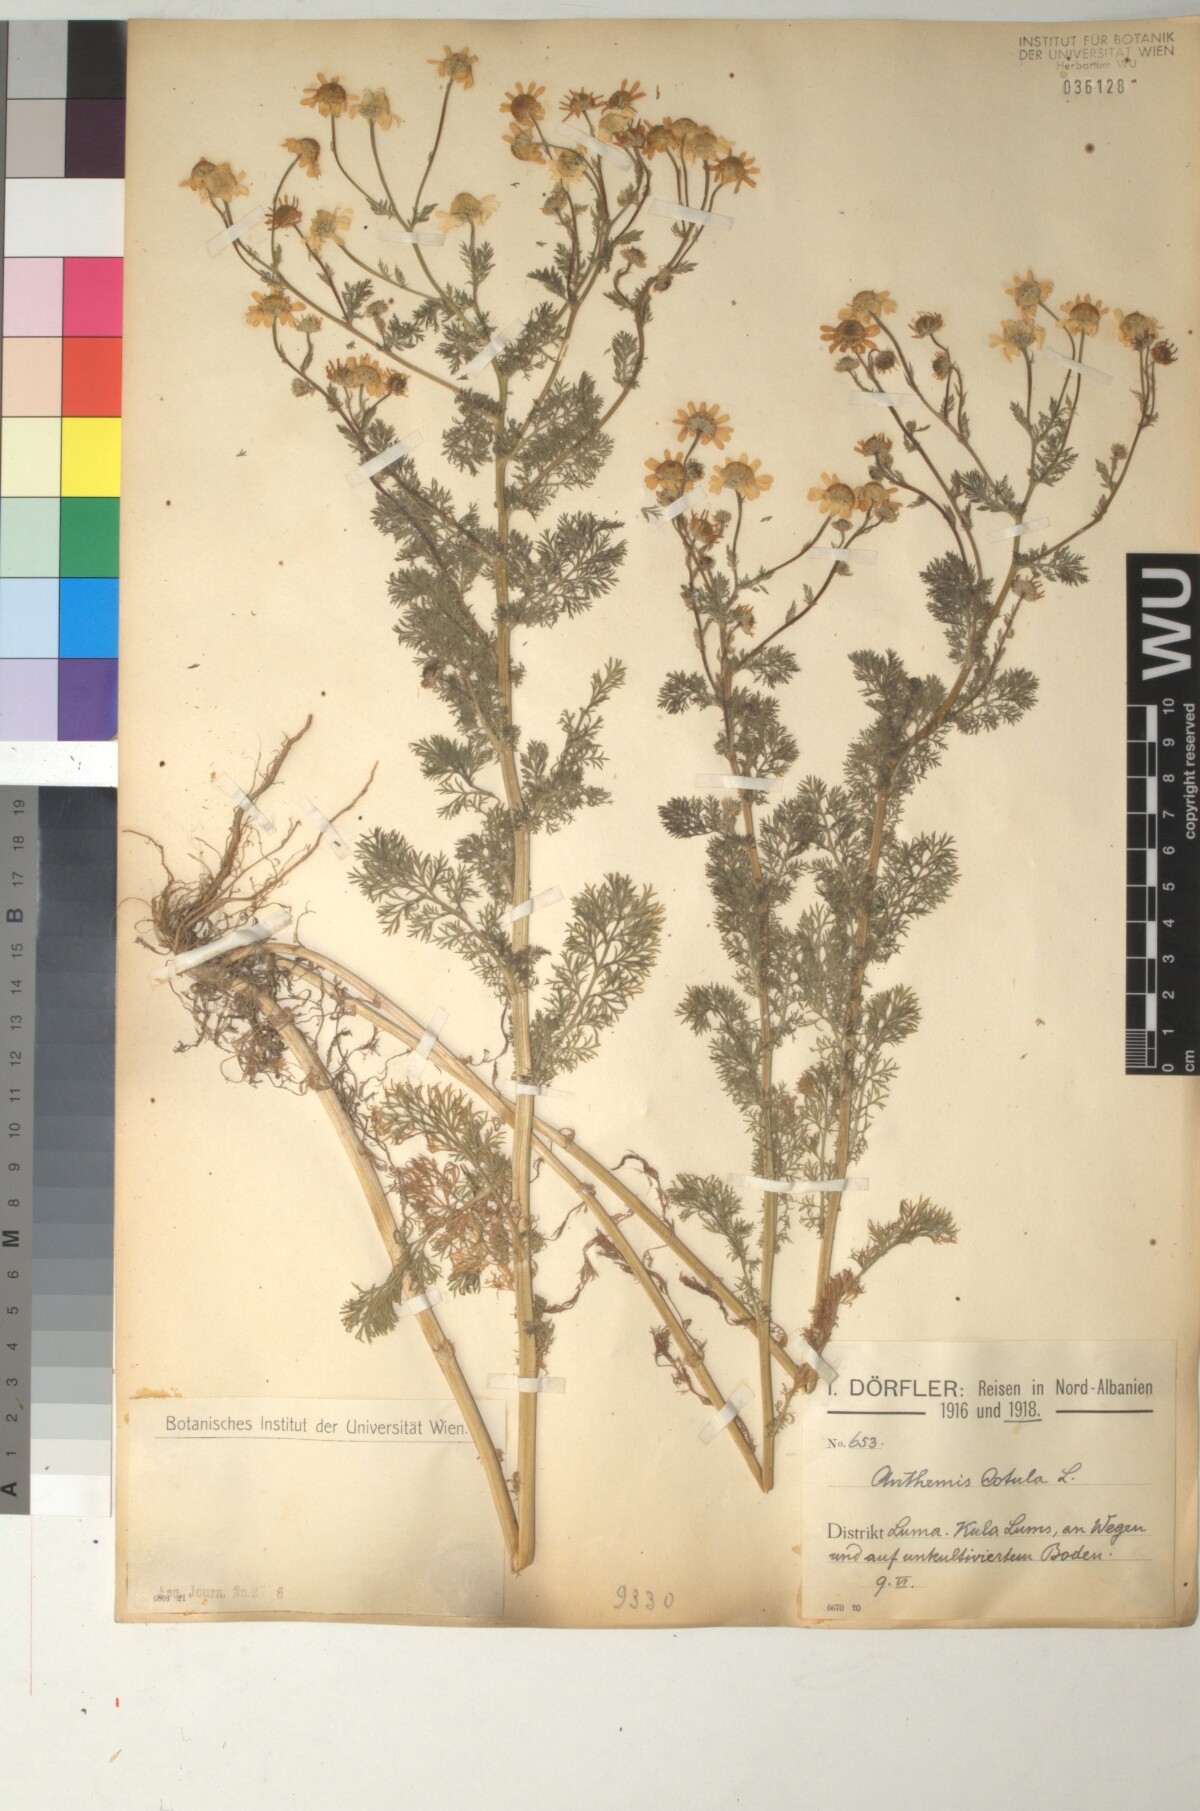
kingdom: Plantae
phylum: Tracheophyta
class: Magnoliopsida
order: Asterales
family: Asteraceae
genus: Anthemis
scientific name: Anthemis cotula
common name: Stinking chamomile
